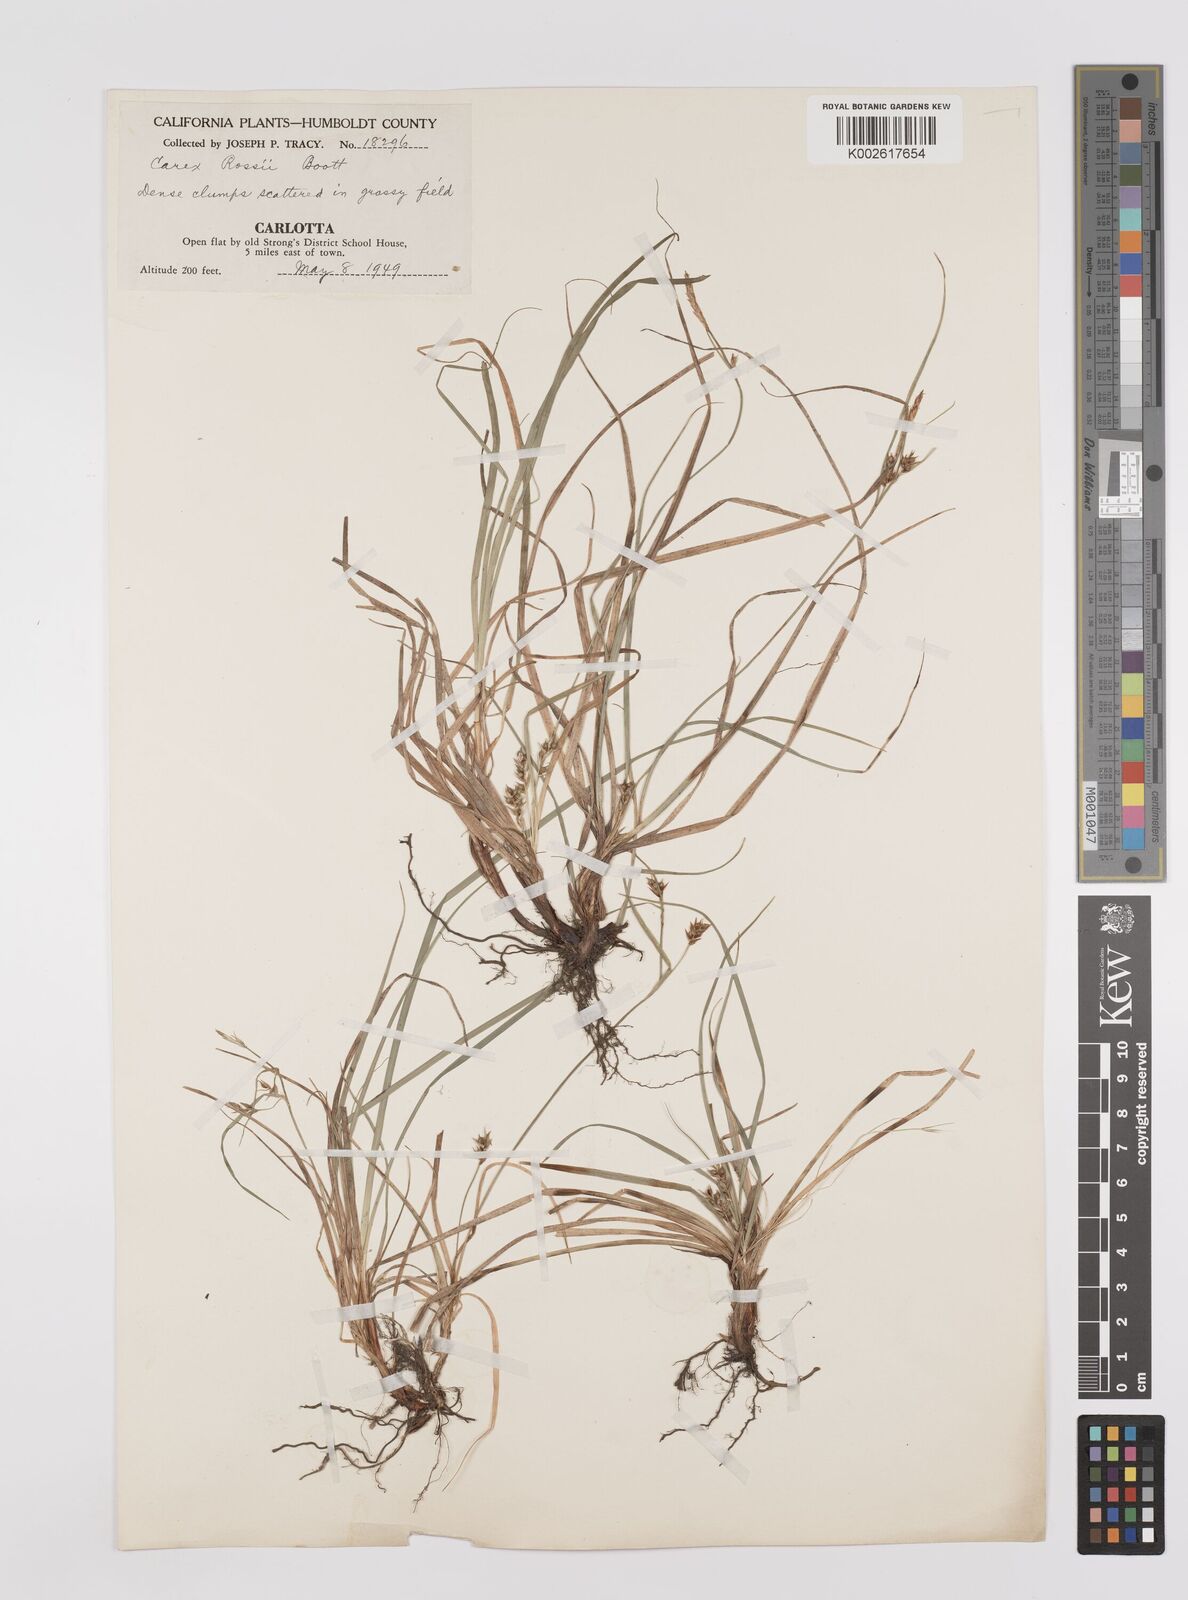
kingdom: Plantae
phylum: Tracheophyta
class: Liliopsida
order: Poales
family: Cyperaceae
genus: Carex
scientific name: Carex rossii
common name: Ross' sedge
